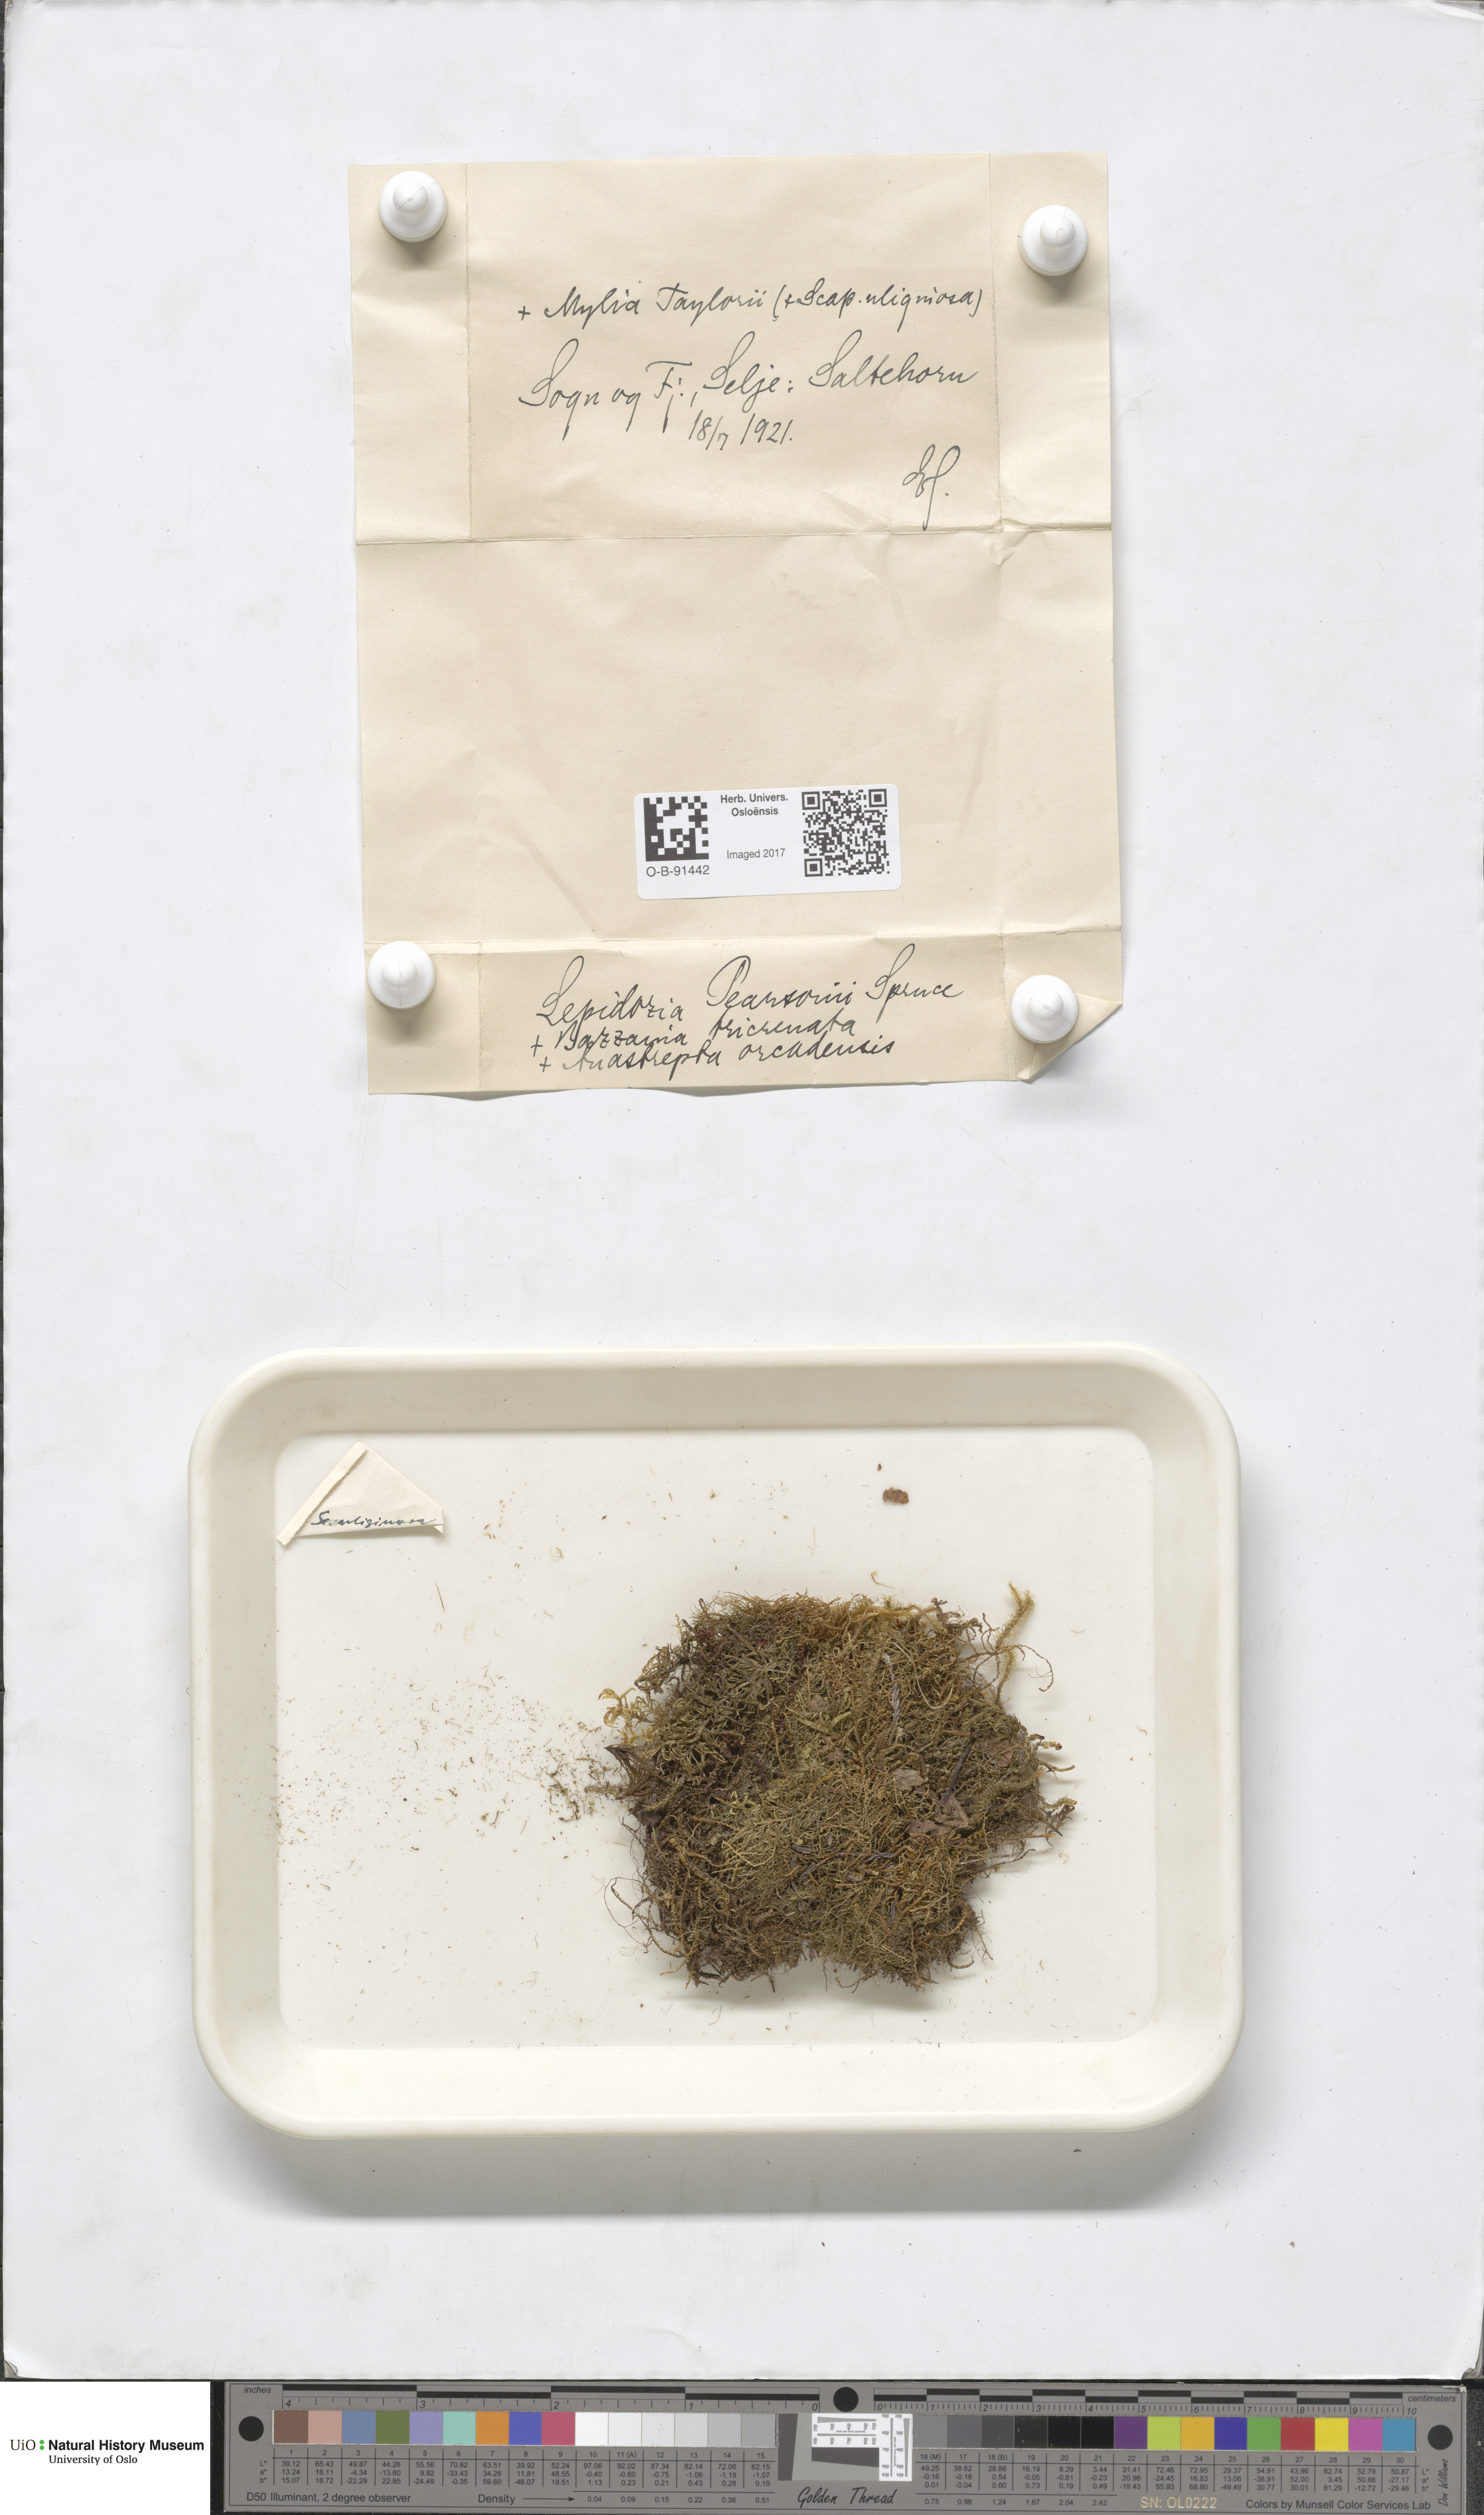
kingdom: Plantae
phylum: Marchantiophyta
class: Jungermanniopsida
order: Jungermanniales
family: Lepidoziaceae
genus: Lepidozia
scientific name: Lepidozia pearsonii
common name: Pearson's fingerwort
